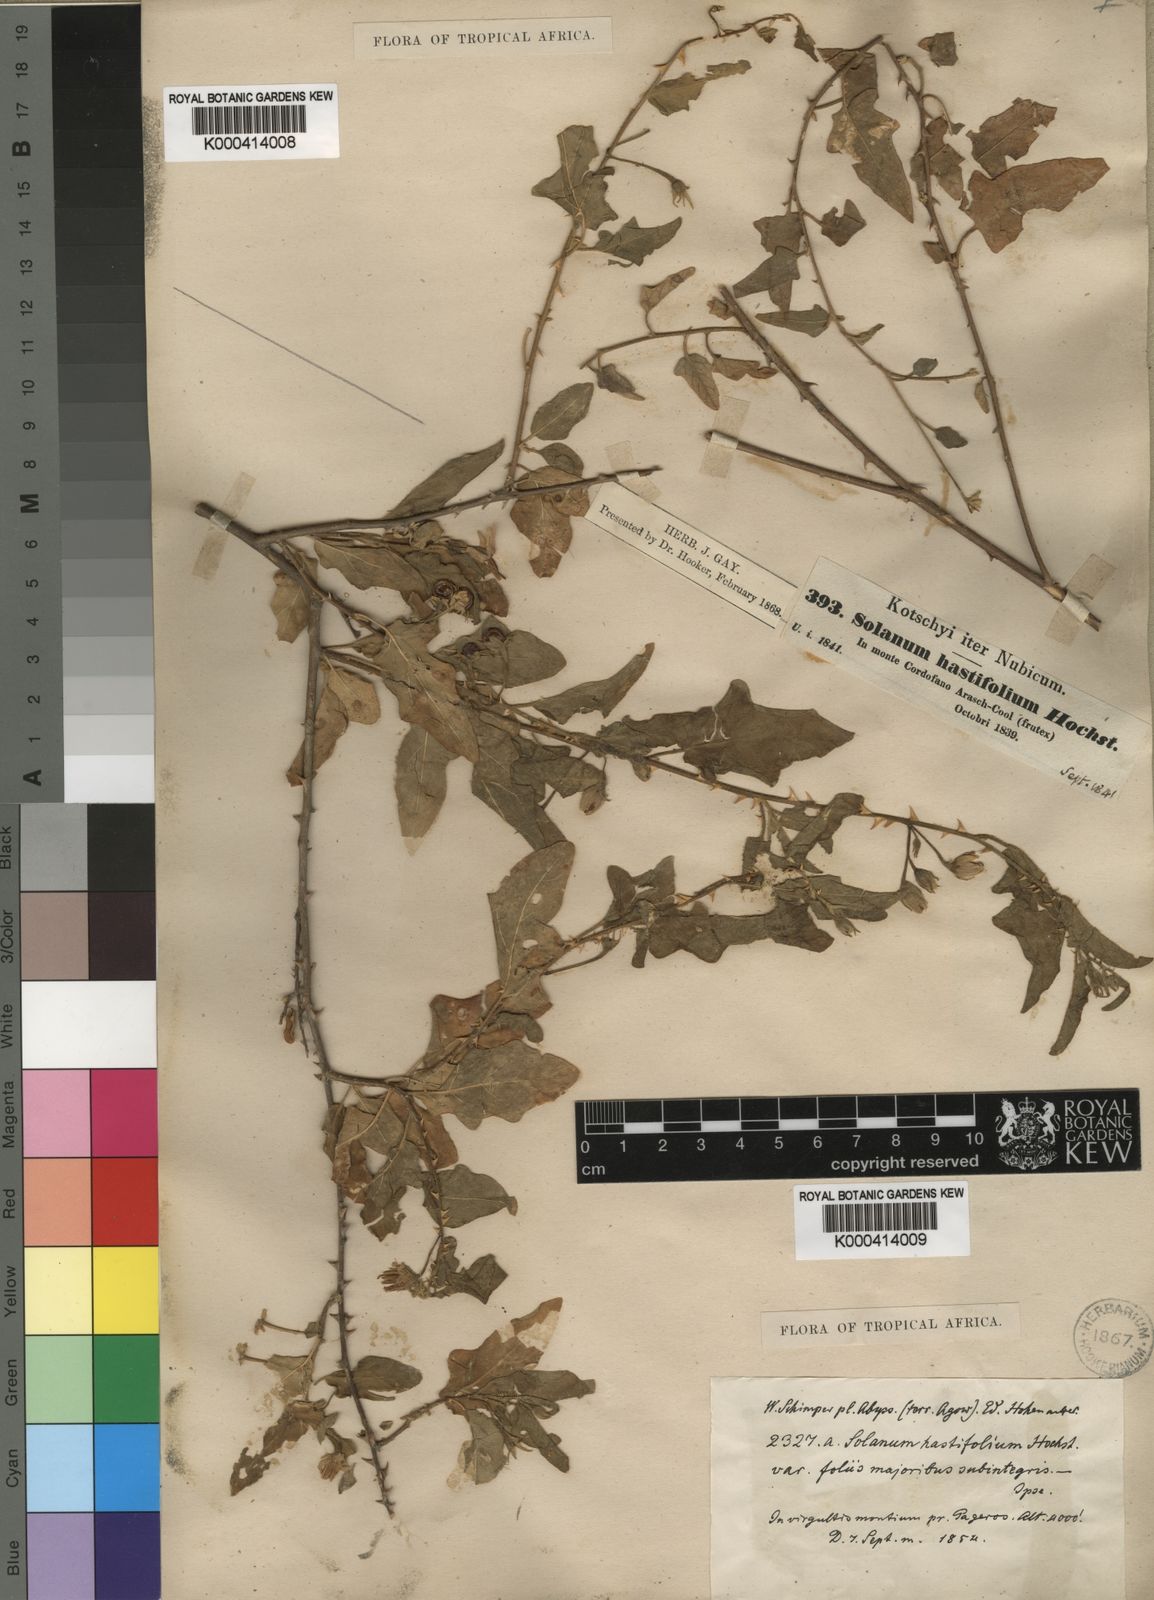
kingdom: Plantae
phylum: Tracheophyta
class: Magnoliopsida
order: Solanales
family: Solanaceae
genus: Solanum
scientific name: Solanum hastifolium
